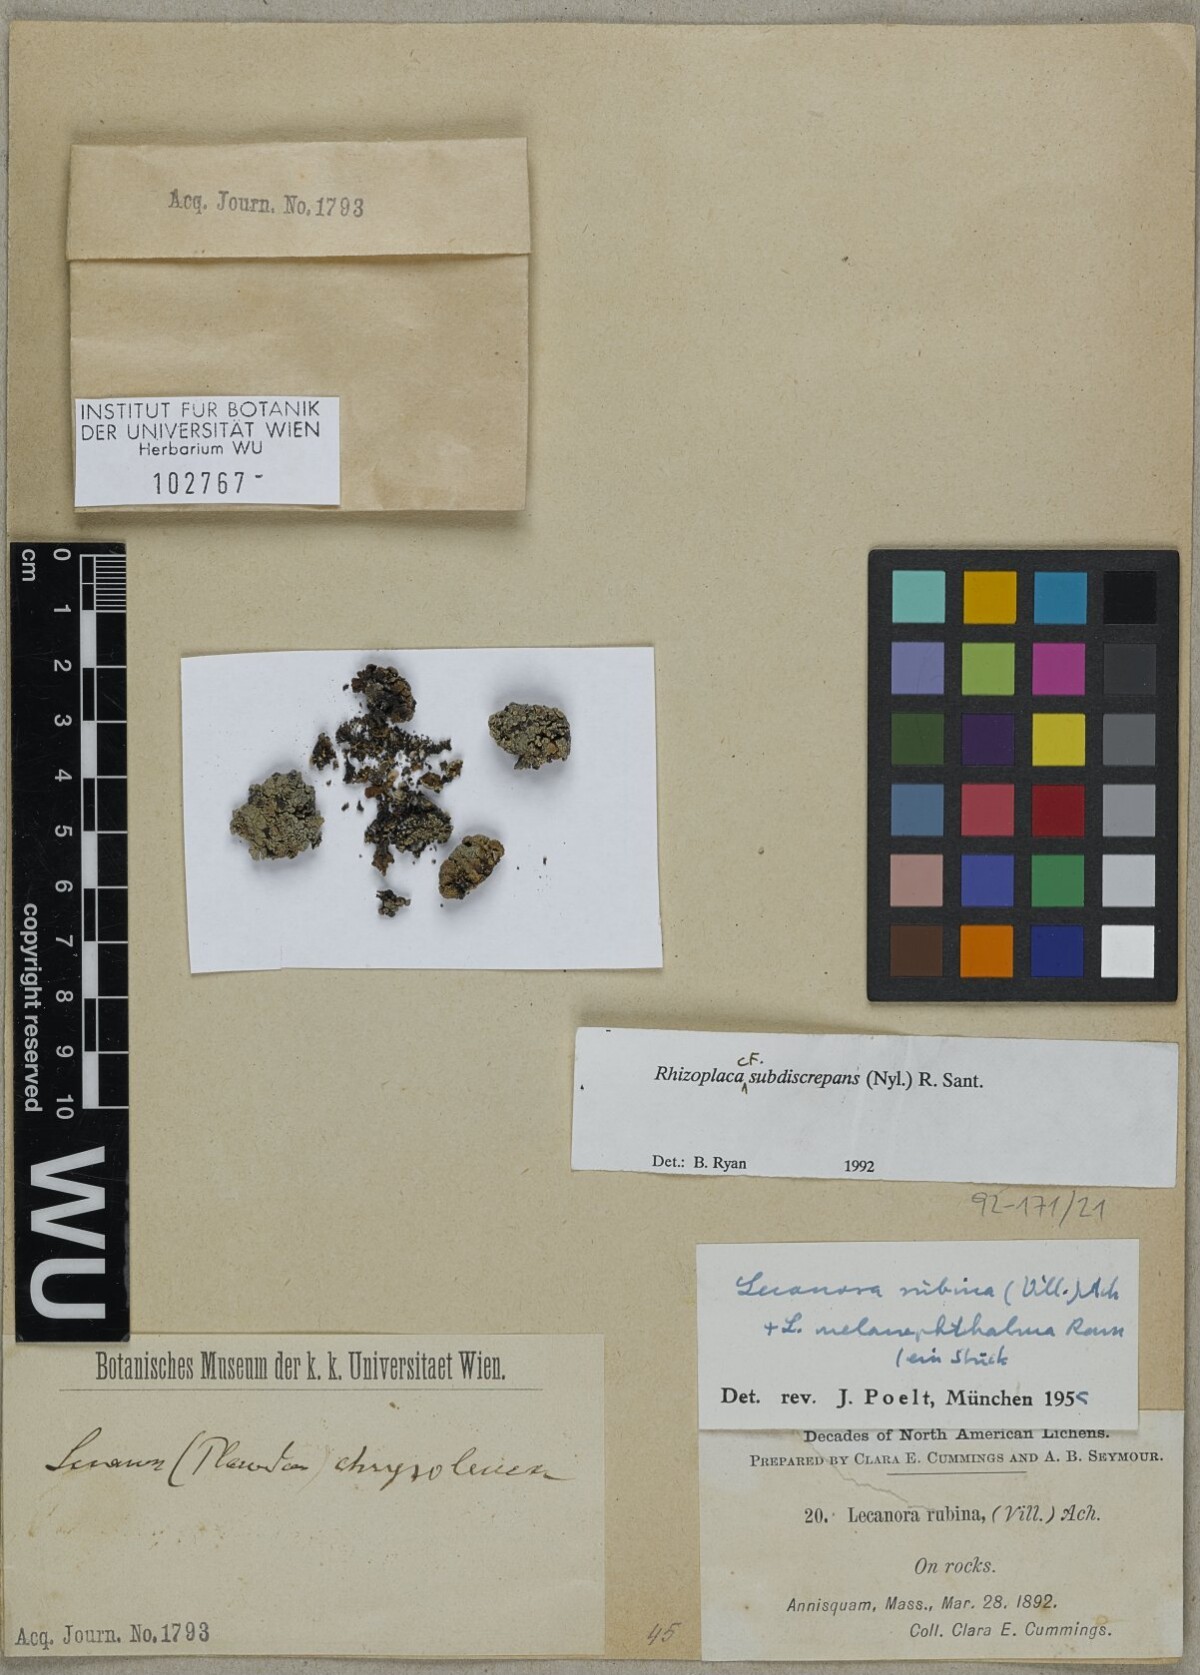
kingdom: Fungi
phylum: Ascomycota
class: Lecanoromycetes
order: Lecanorales
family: Lecanoraceae
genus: Sedelnikovaea
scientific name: Sedelnikovaea subdiscrepans
